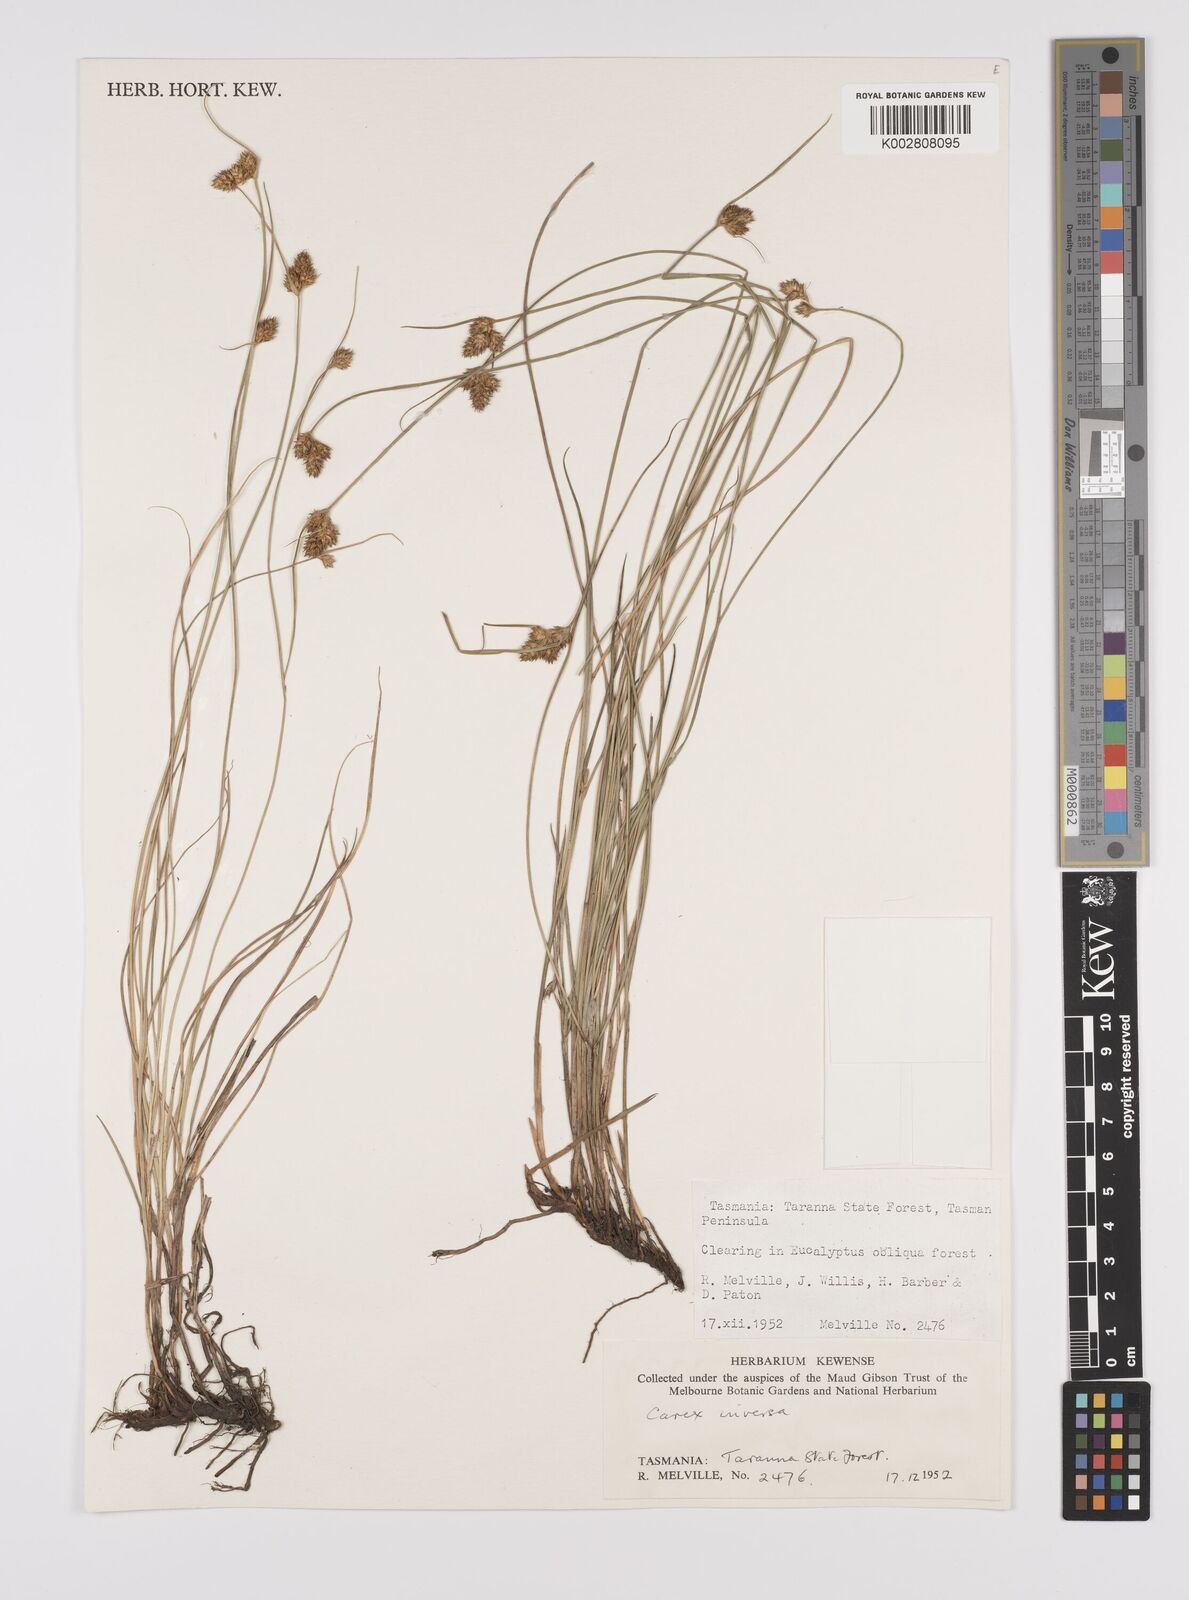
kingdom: Plantae
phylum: Tracheophyta
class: Liliopsida
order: Poales
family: Cyperaceae
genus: Carex
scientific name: Carex inversa
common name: Knob sedge
